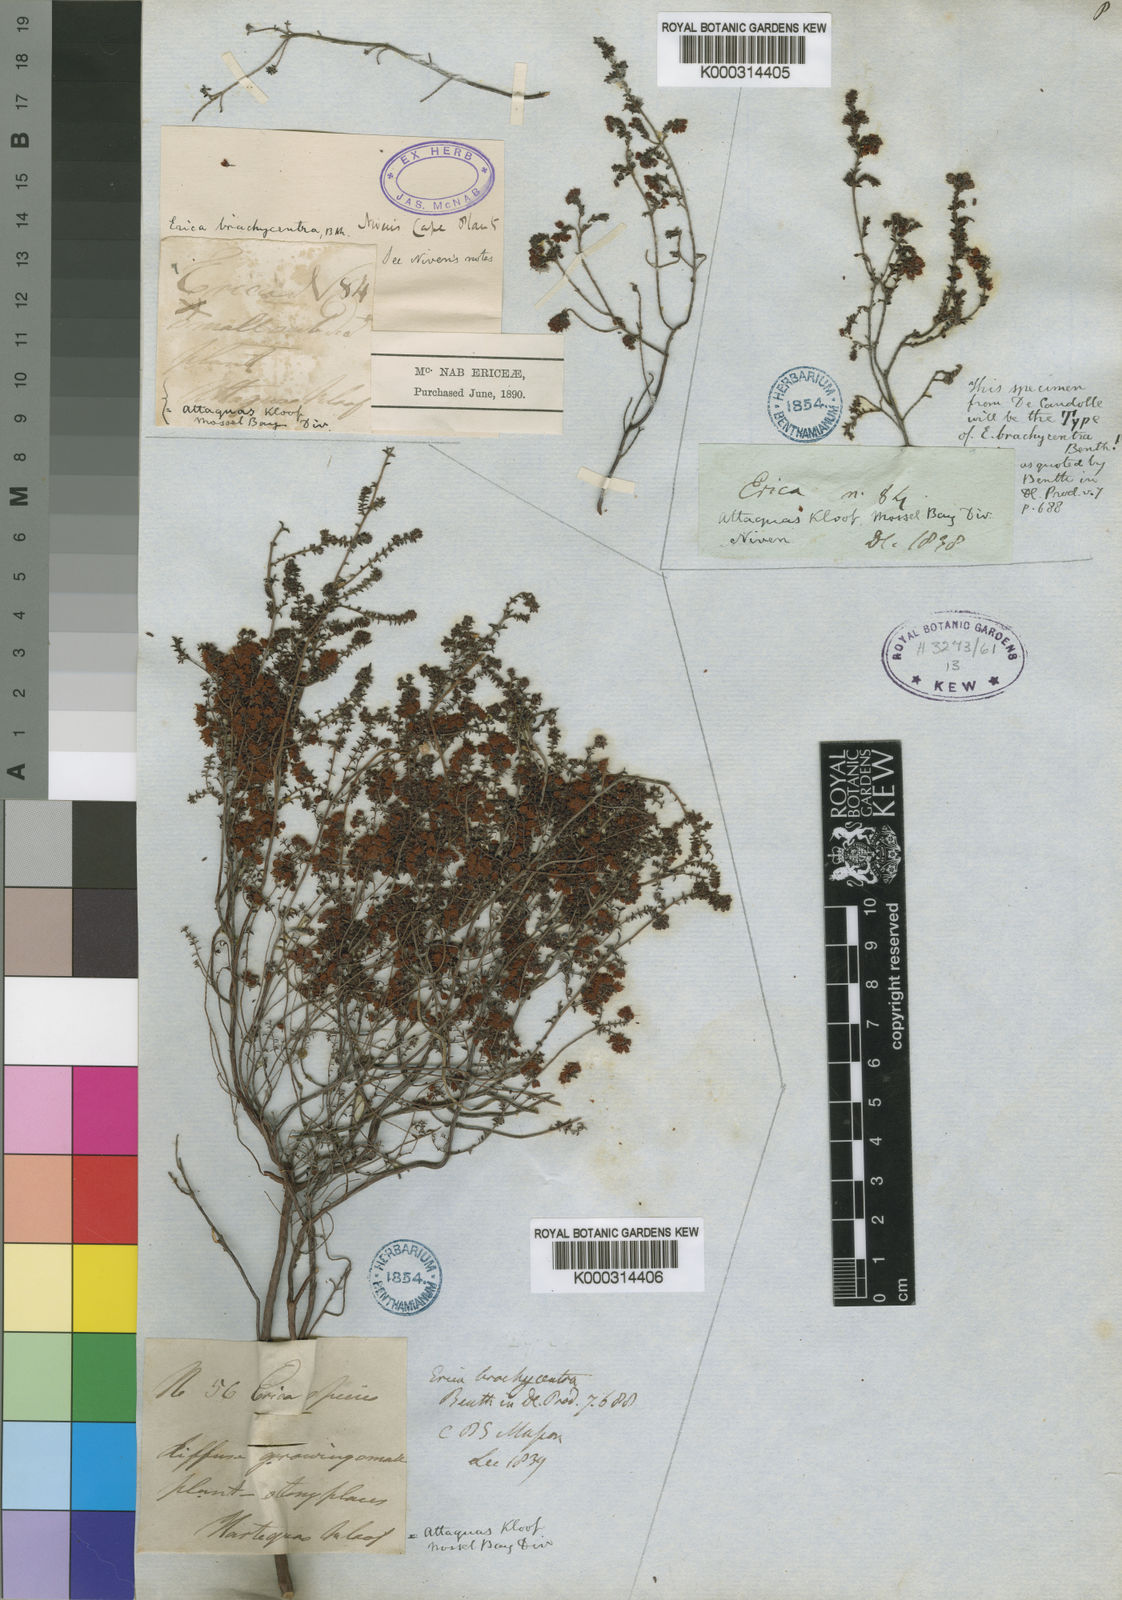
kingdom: Plantae
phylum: Tracheophyta
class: Magnoliopsida
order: Ericales
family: Ericaceae
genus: Erica
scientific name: Erica brachycentra
